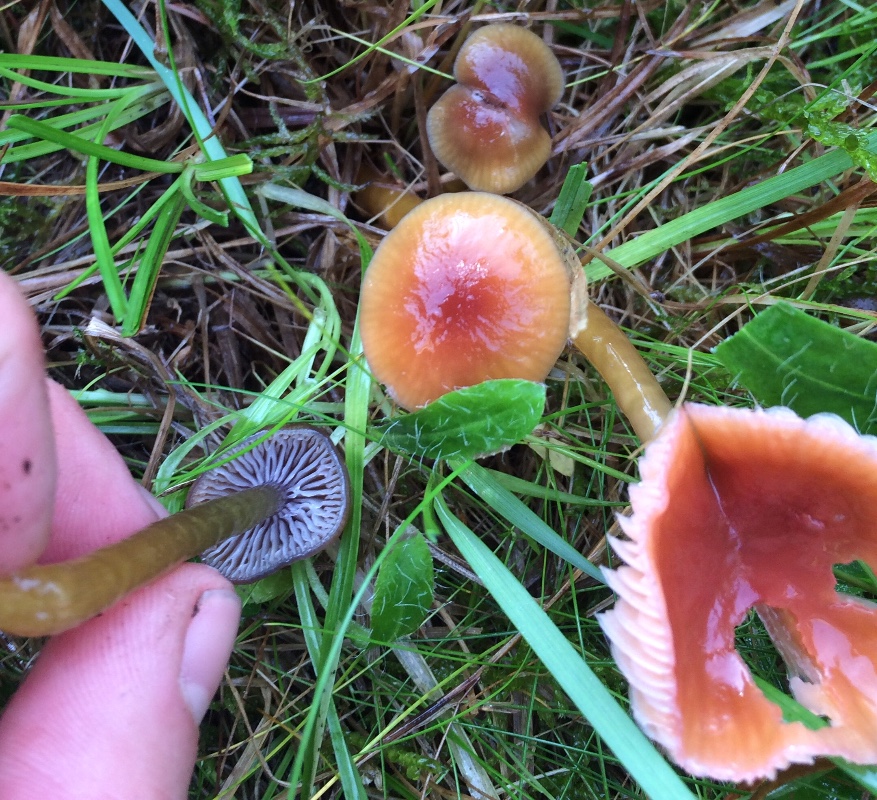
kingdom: Fungi
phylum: Basidiomycota
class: Agaricomycetes
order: Agaricales
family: Hygrophoraceae
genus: Gliophorus
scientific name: Gliophorus laetus
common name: brusk-vokshat
